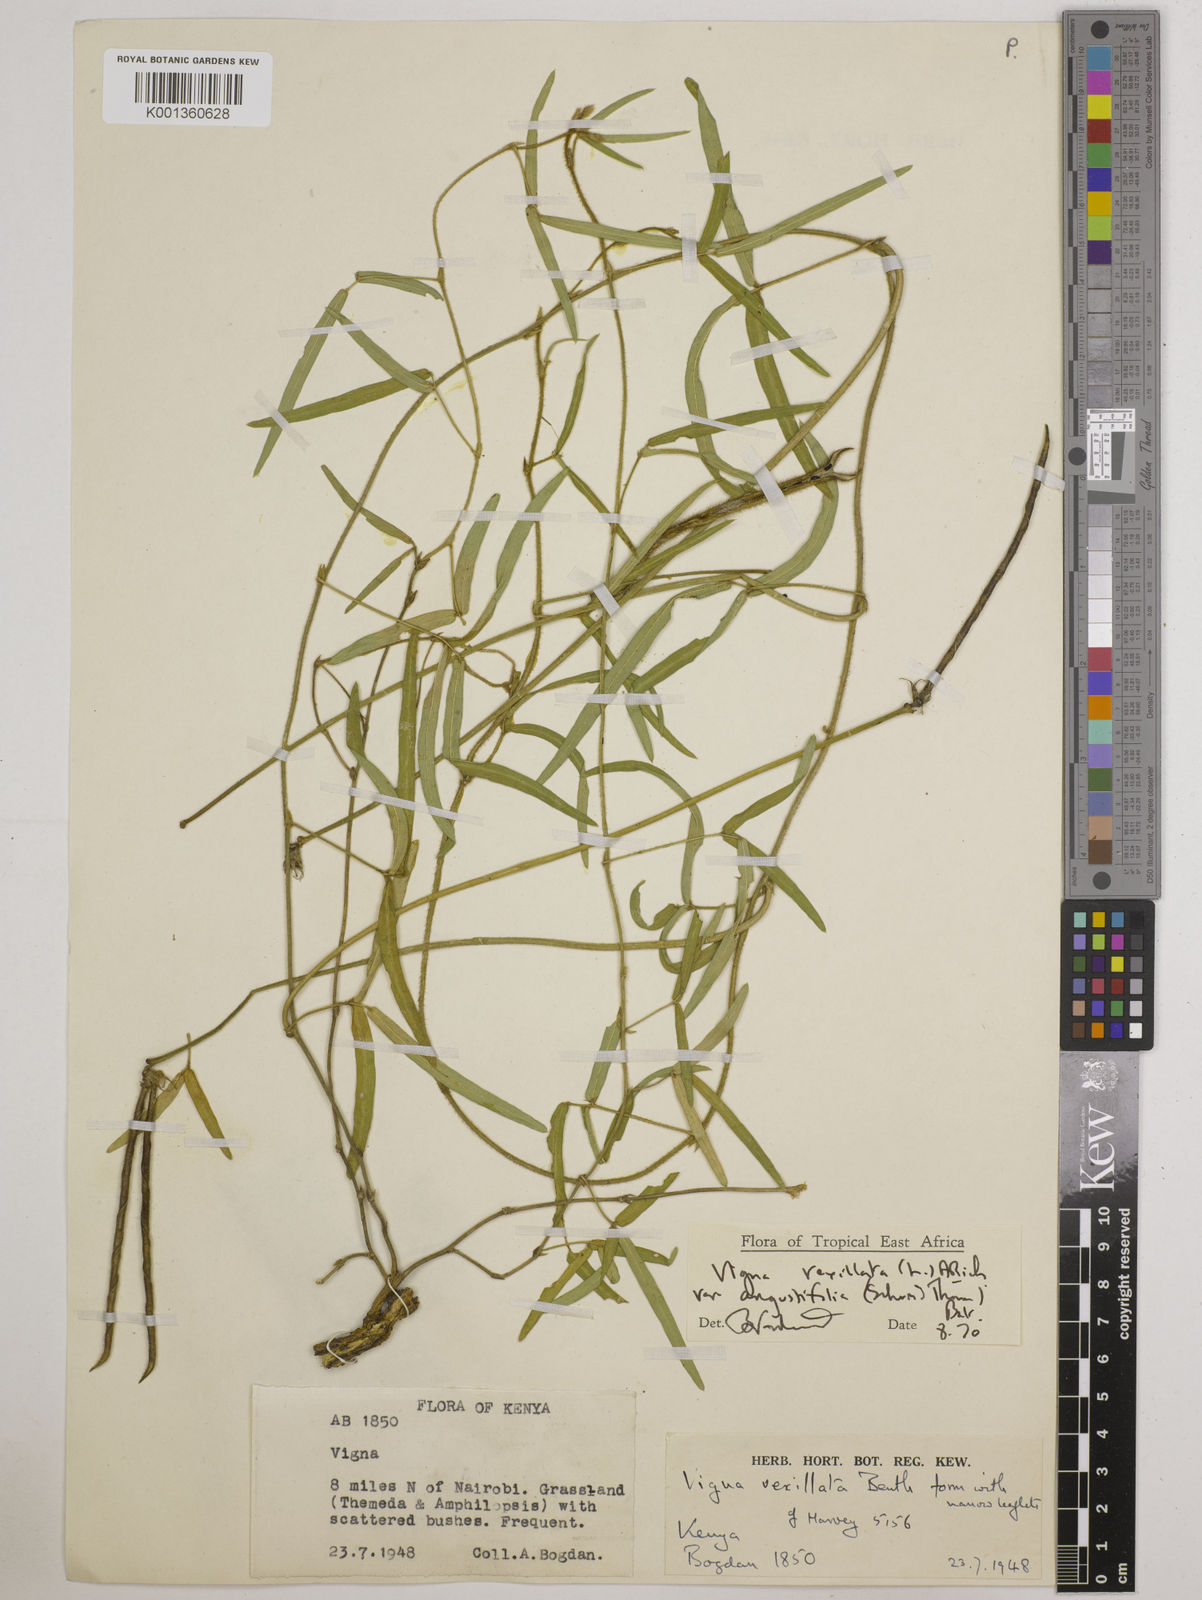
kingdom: Plantae
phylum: Tracheophyta
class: Magnoliopsida
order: Fabales
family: Fabaceae
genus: Vigna
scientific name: Vigna vexillata
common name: Zombi pea
